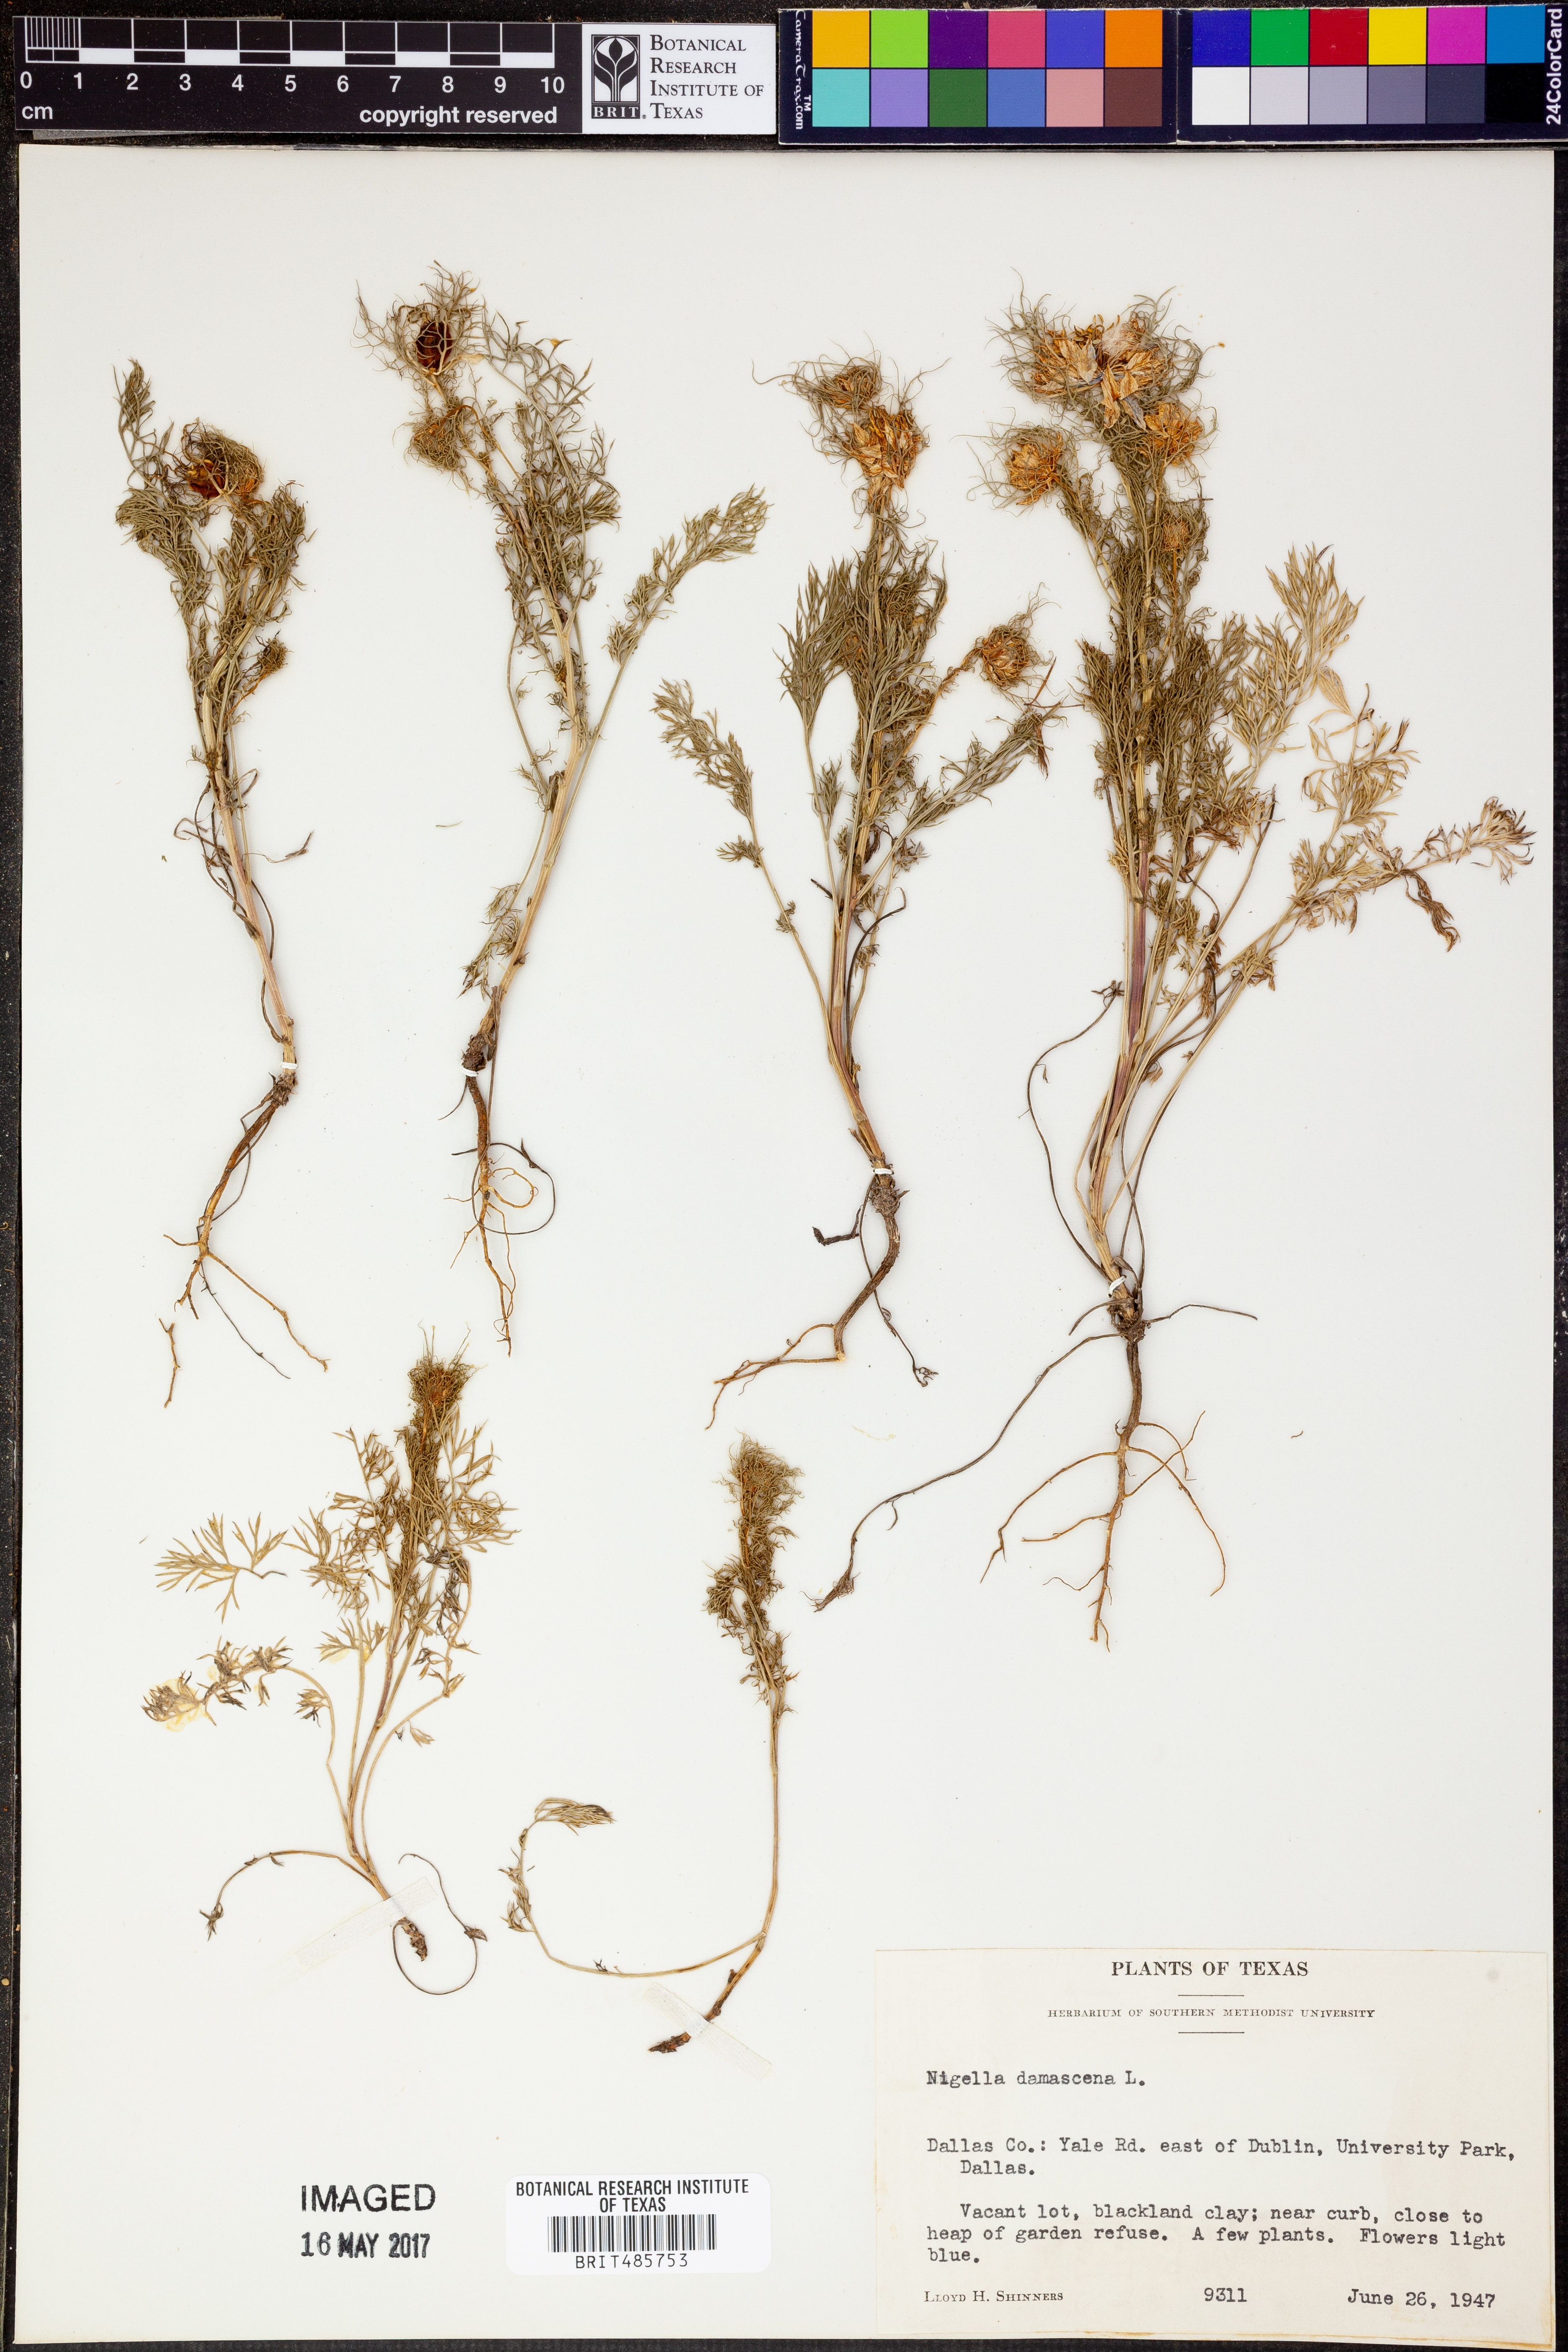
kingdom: Plantae
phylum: Tracheophyta
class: Magnoliopsida
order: Ranunculales
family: Ranunculaceae
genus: Nigella
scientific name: Nigella damascena
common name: Love-in-a-mist
